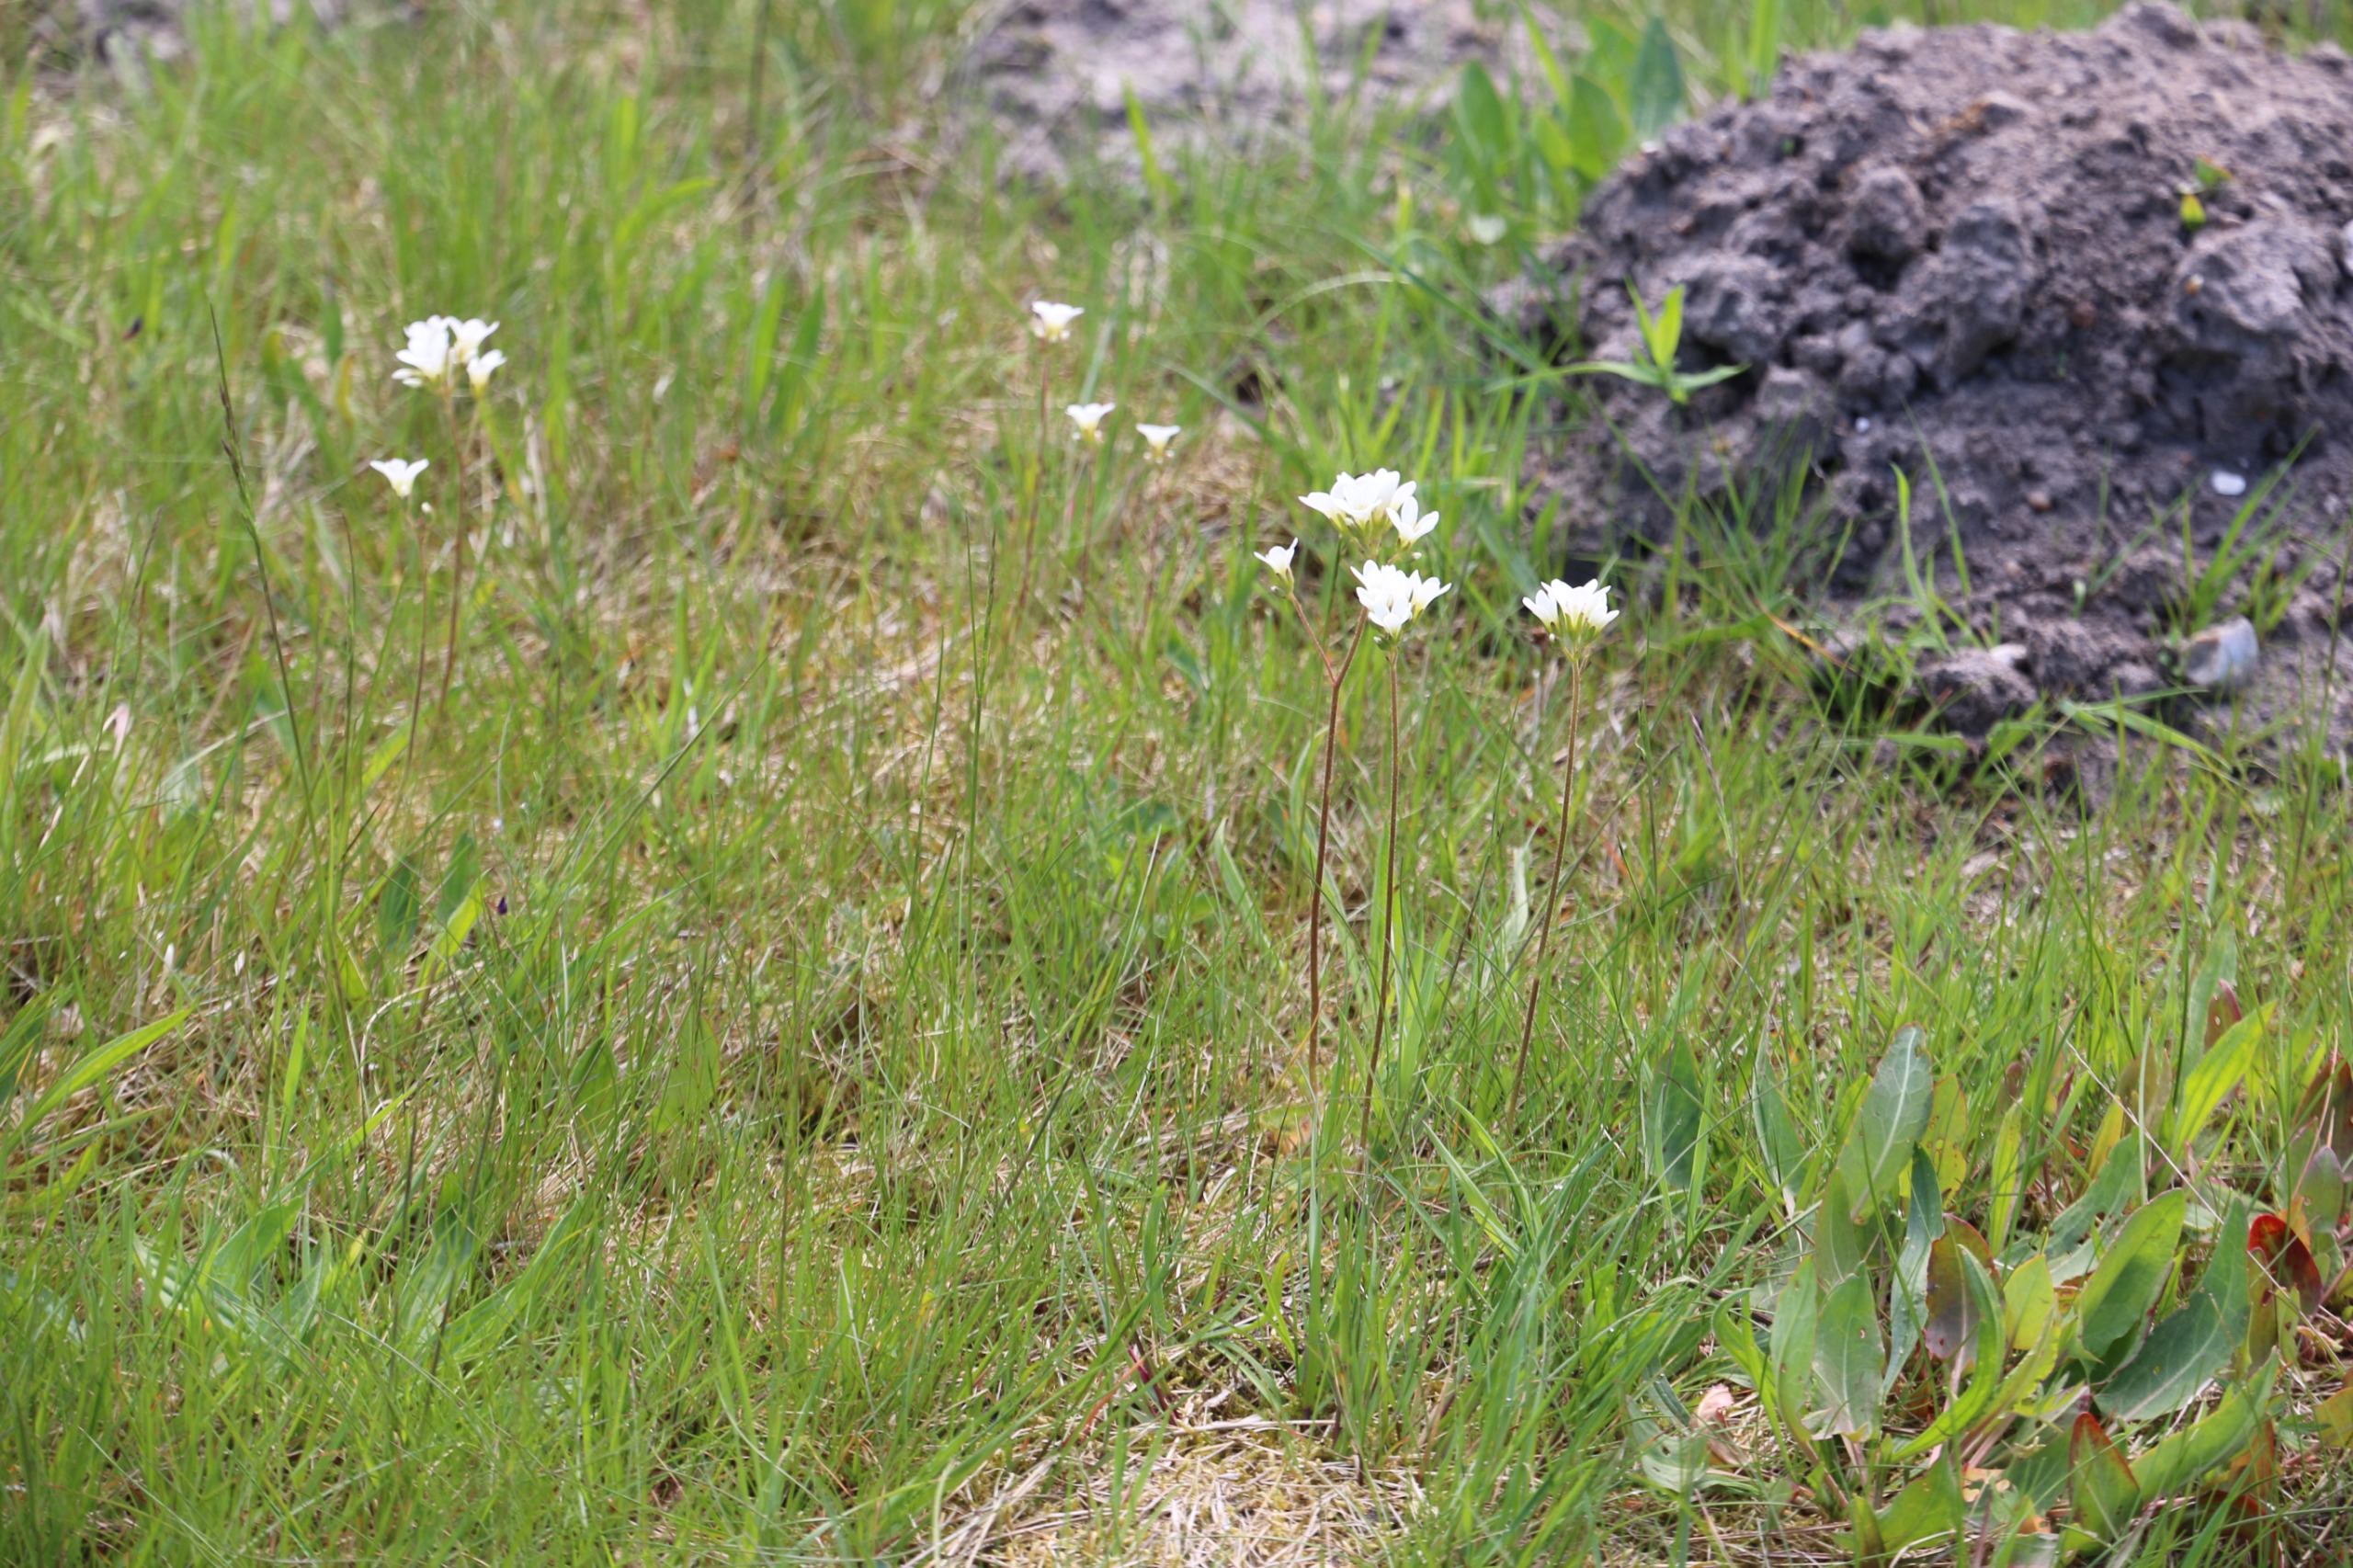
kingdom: Plantae
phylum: Tracheophyta
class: Magnoliopsida
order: Saxifragales
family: Saxifragaceae
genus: Saxifraga
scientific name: Saxifraga granulata
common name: Kornet stenbræk
